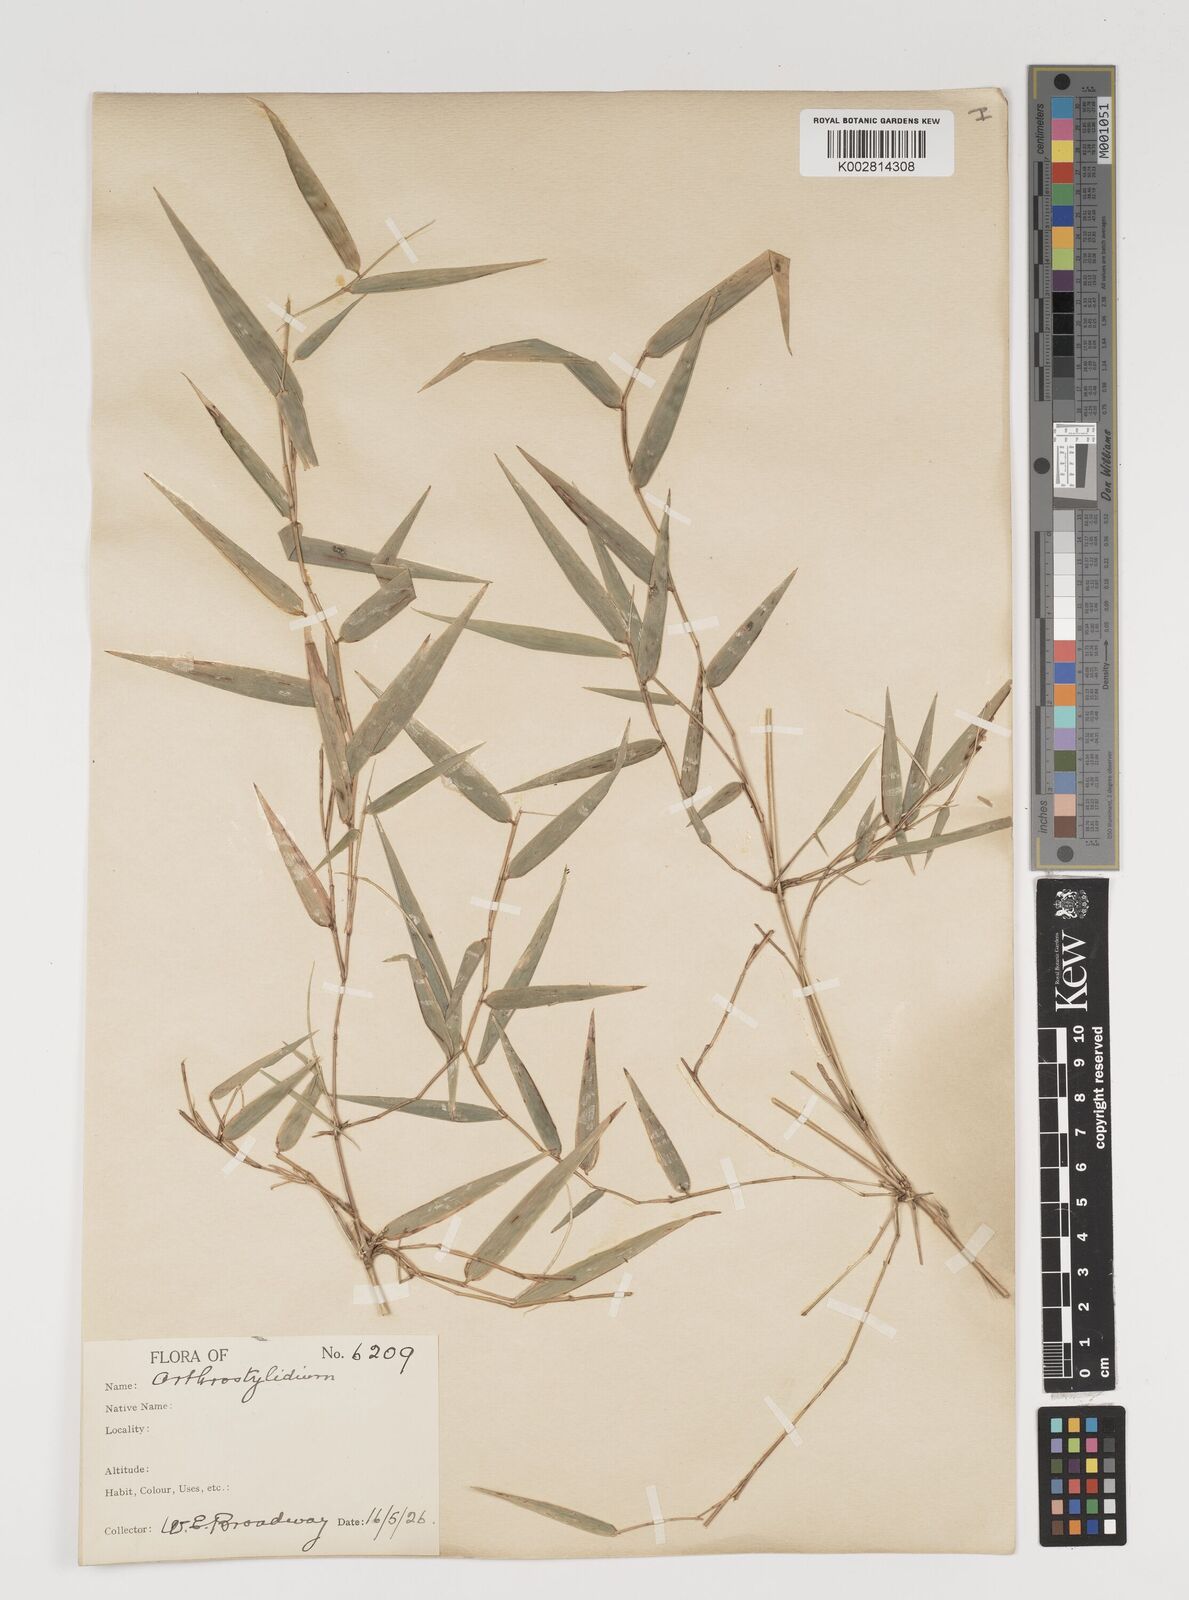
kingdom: Plantae
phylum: Tracheophyta
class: Liliopsida
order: Poales
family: Poaceae
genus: Arthrostylidium
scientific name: Arthrostylidium
